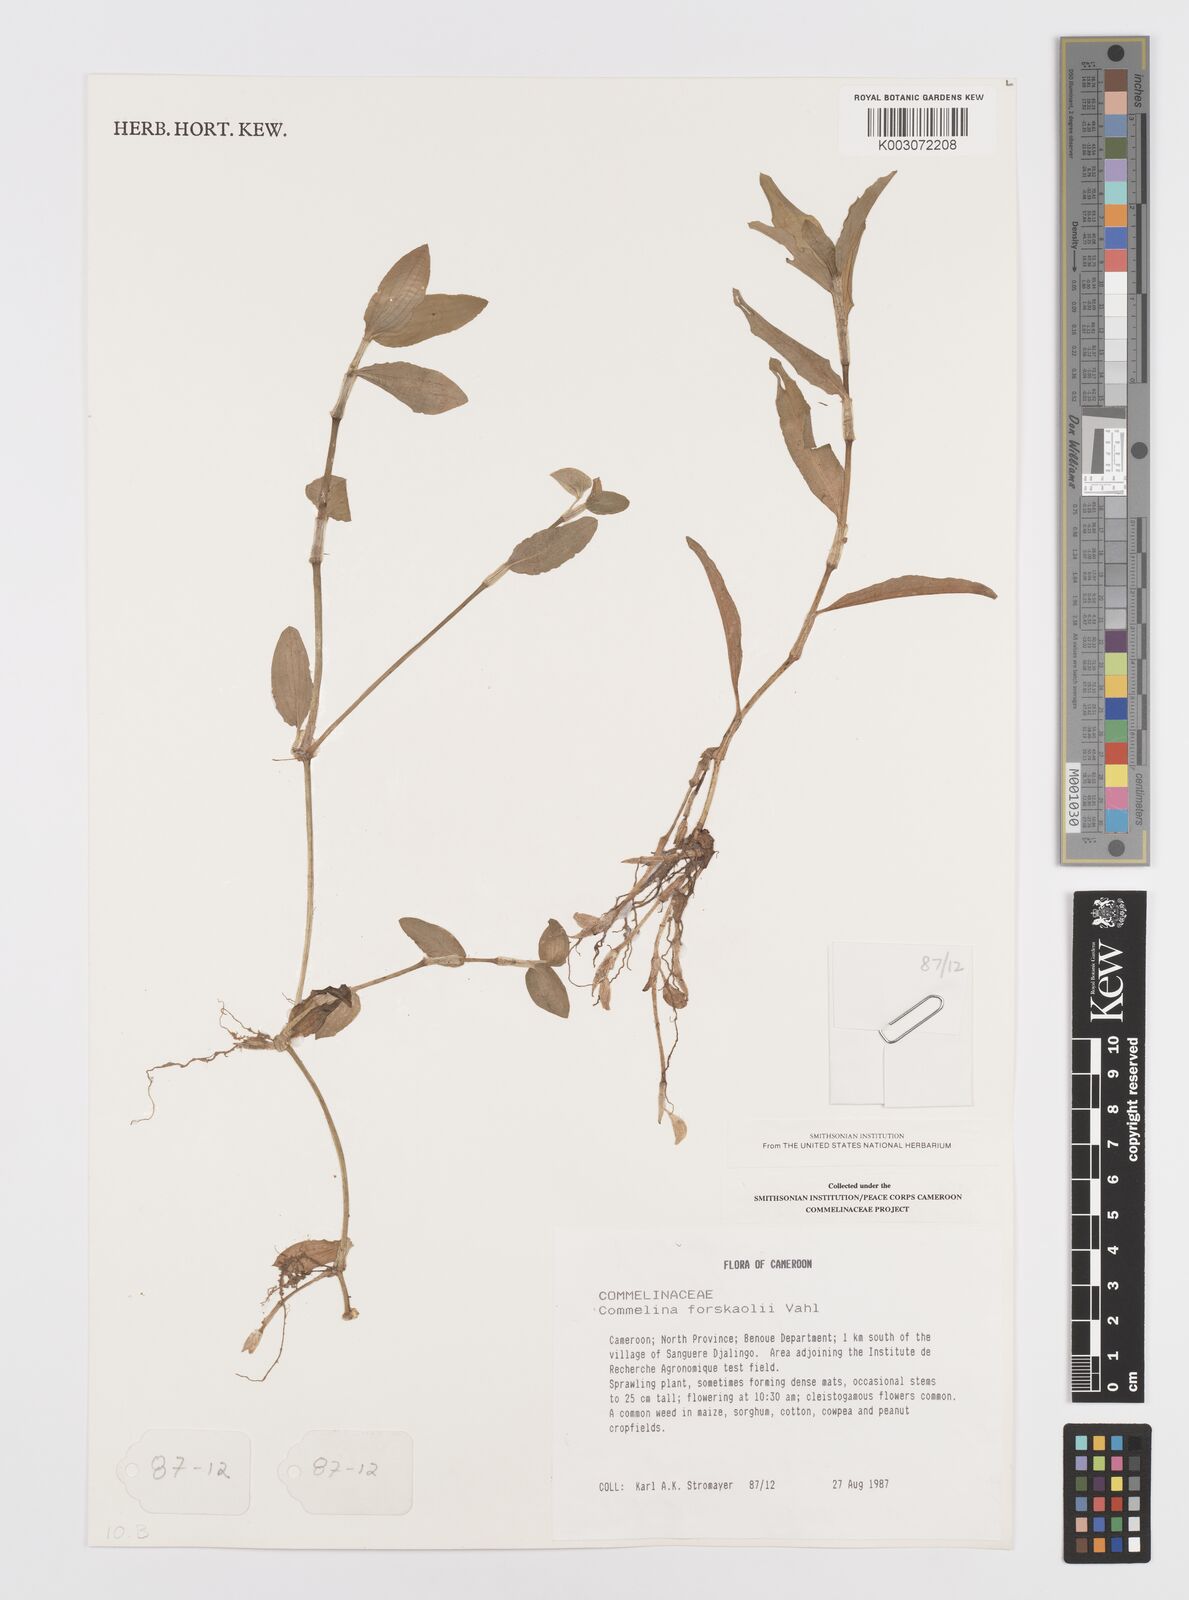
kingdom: Plantae
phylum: Tracheophyta
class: Liliopsida
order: Commelinales
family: Commelinaceae
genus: Commelina
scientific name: Commelina forskaolii
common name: Rat's ear
